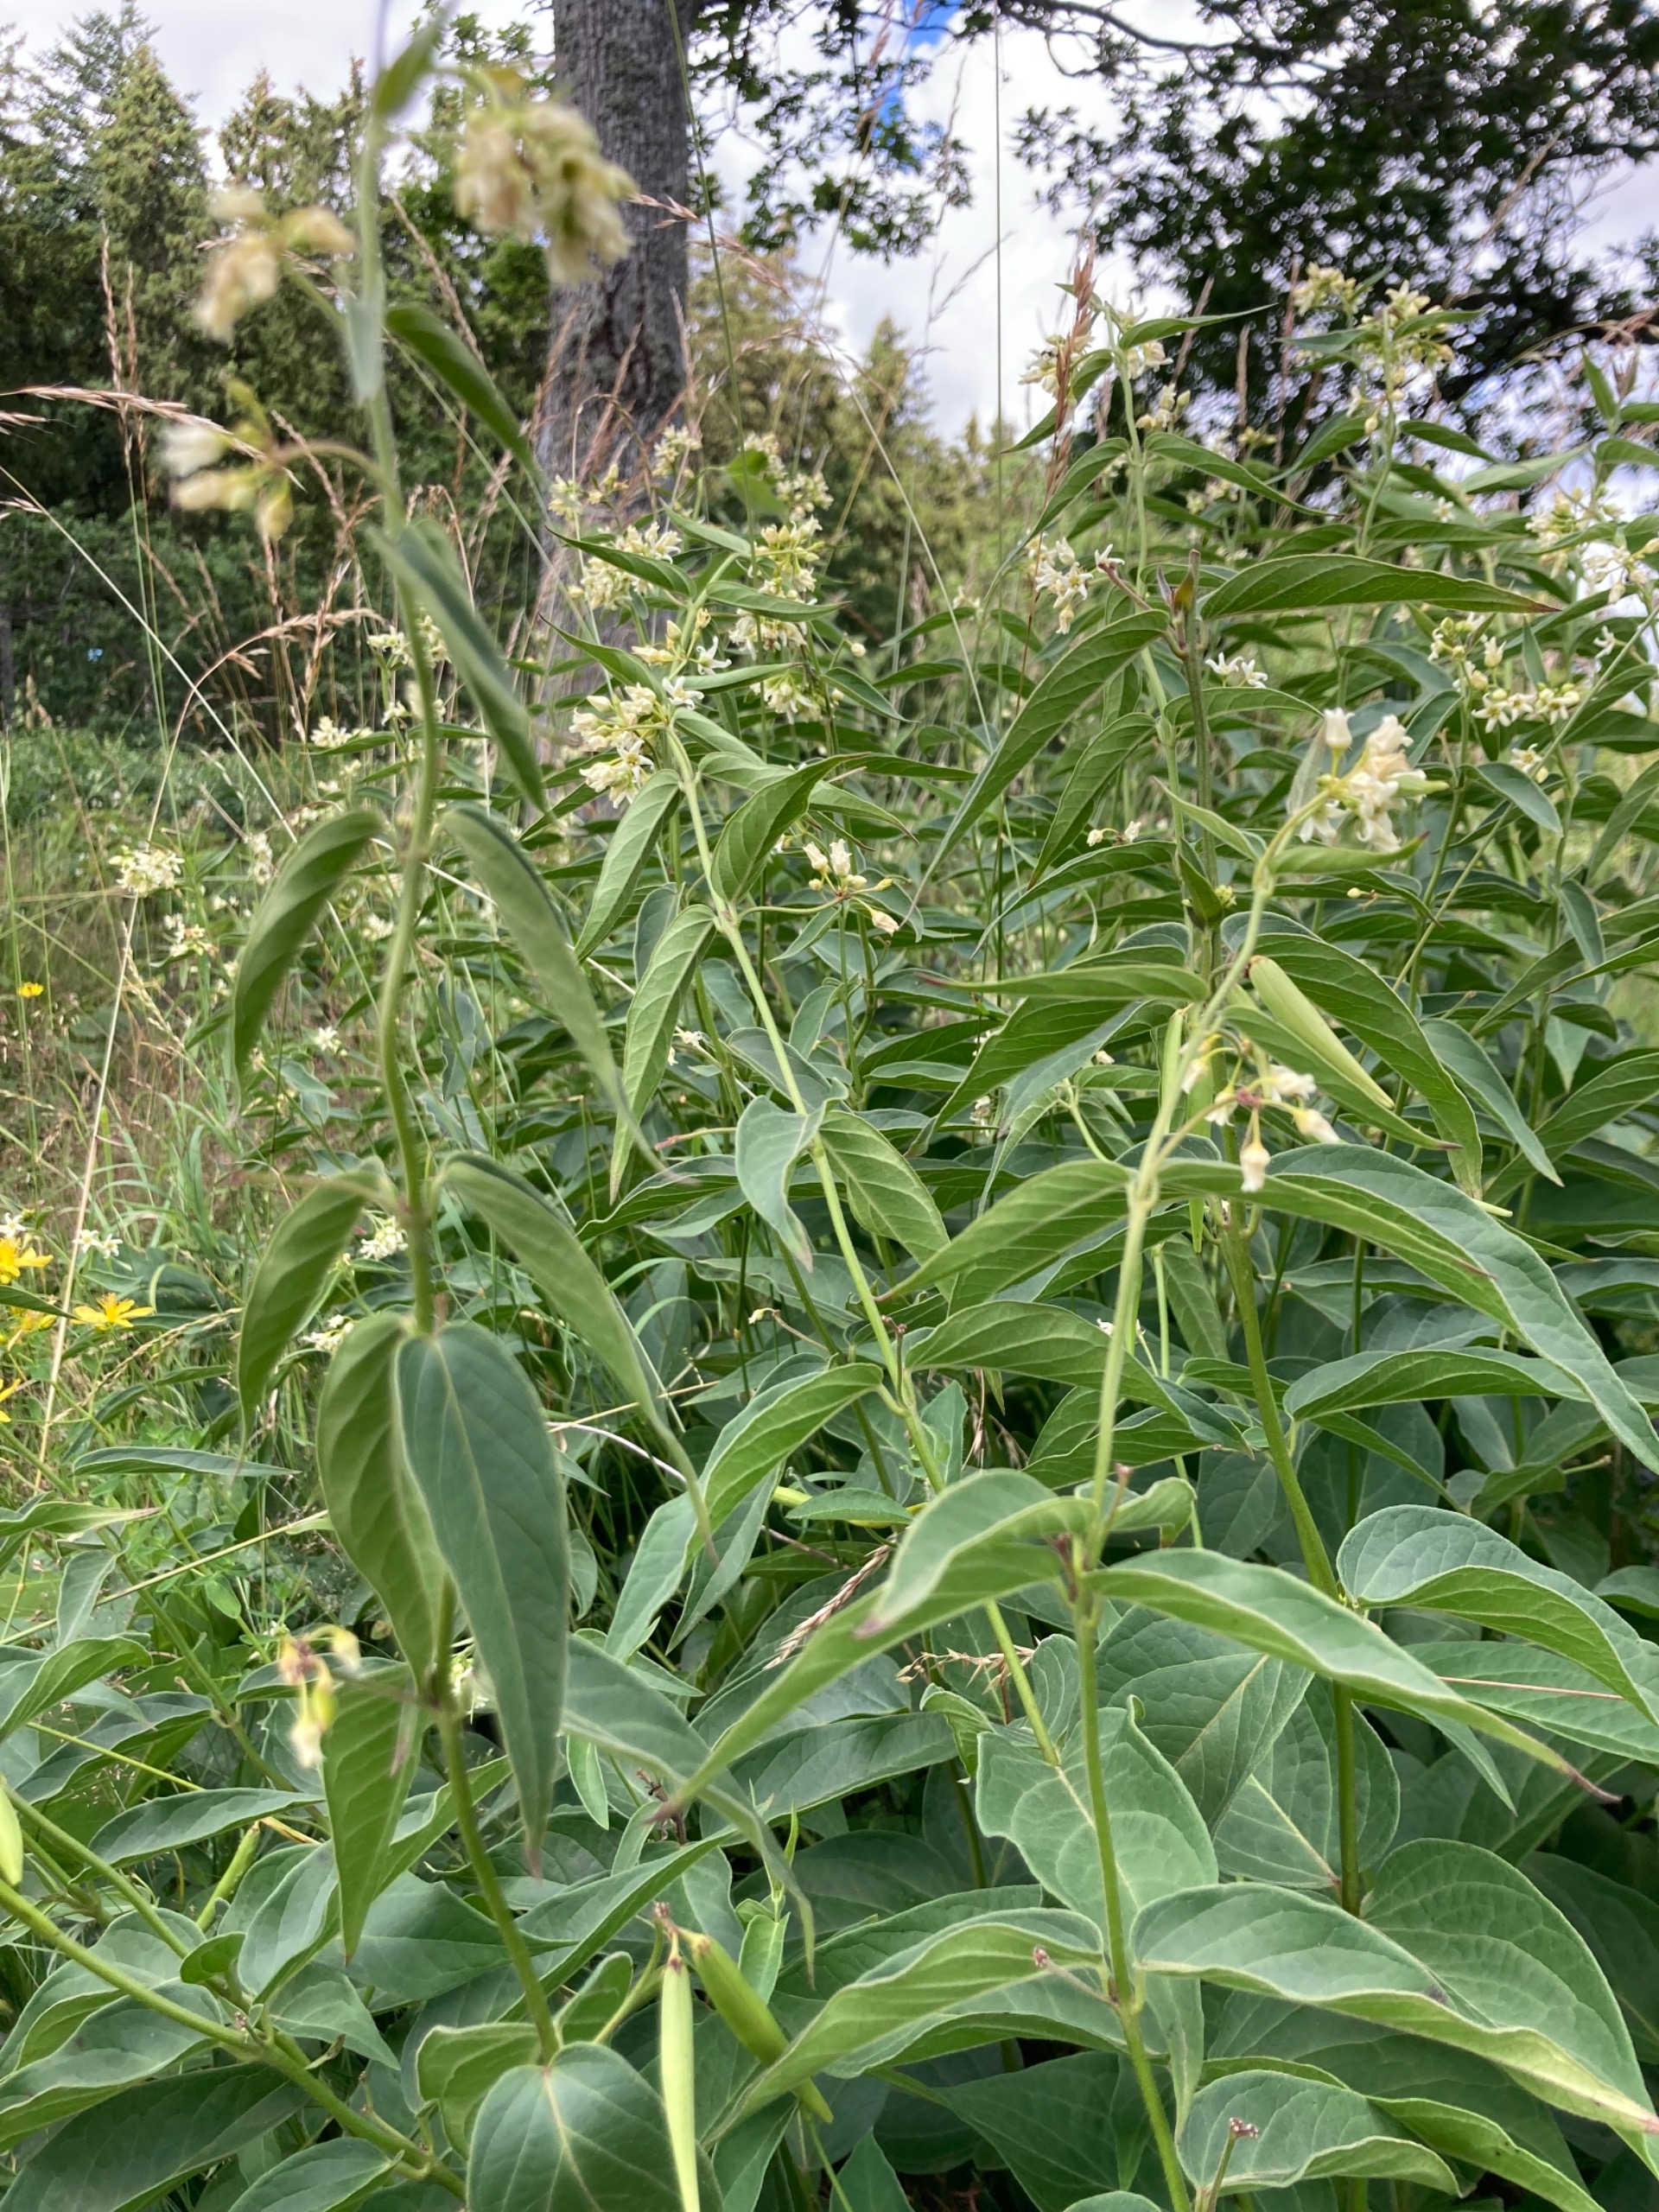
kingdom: Plantae
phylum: Tracheophyta
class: Magnoliopsida
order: Gentianales
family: Apocynaceae
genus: Vincetoxicum
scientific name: Vincetoxicum hirundinaria
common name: Svalerod
